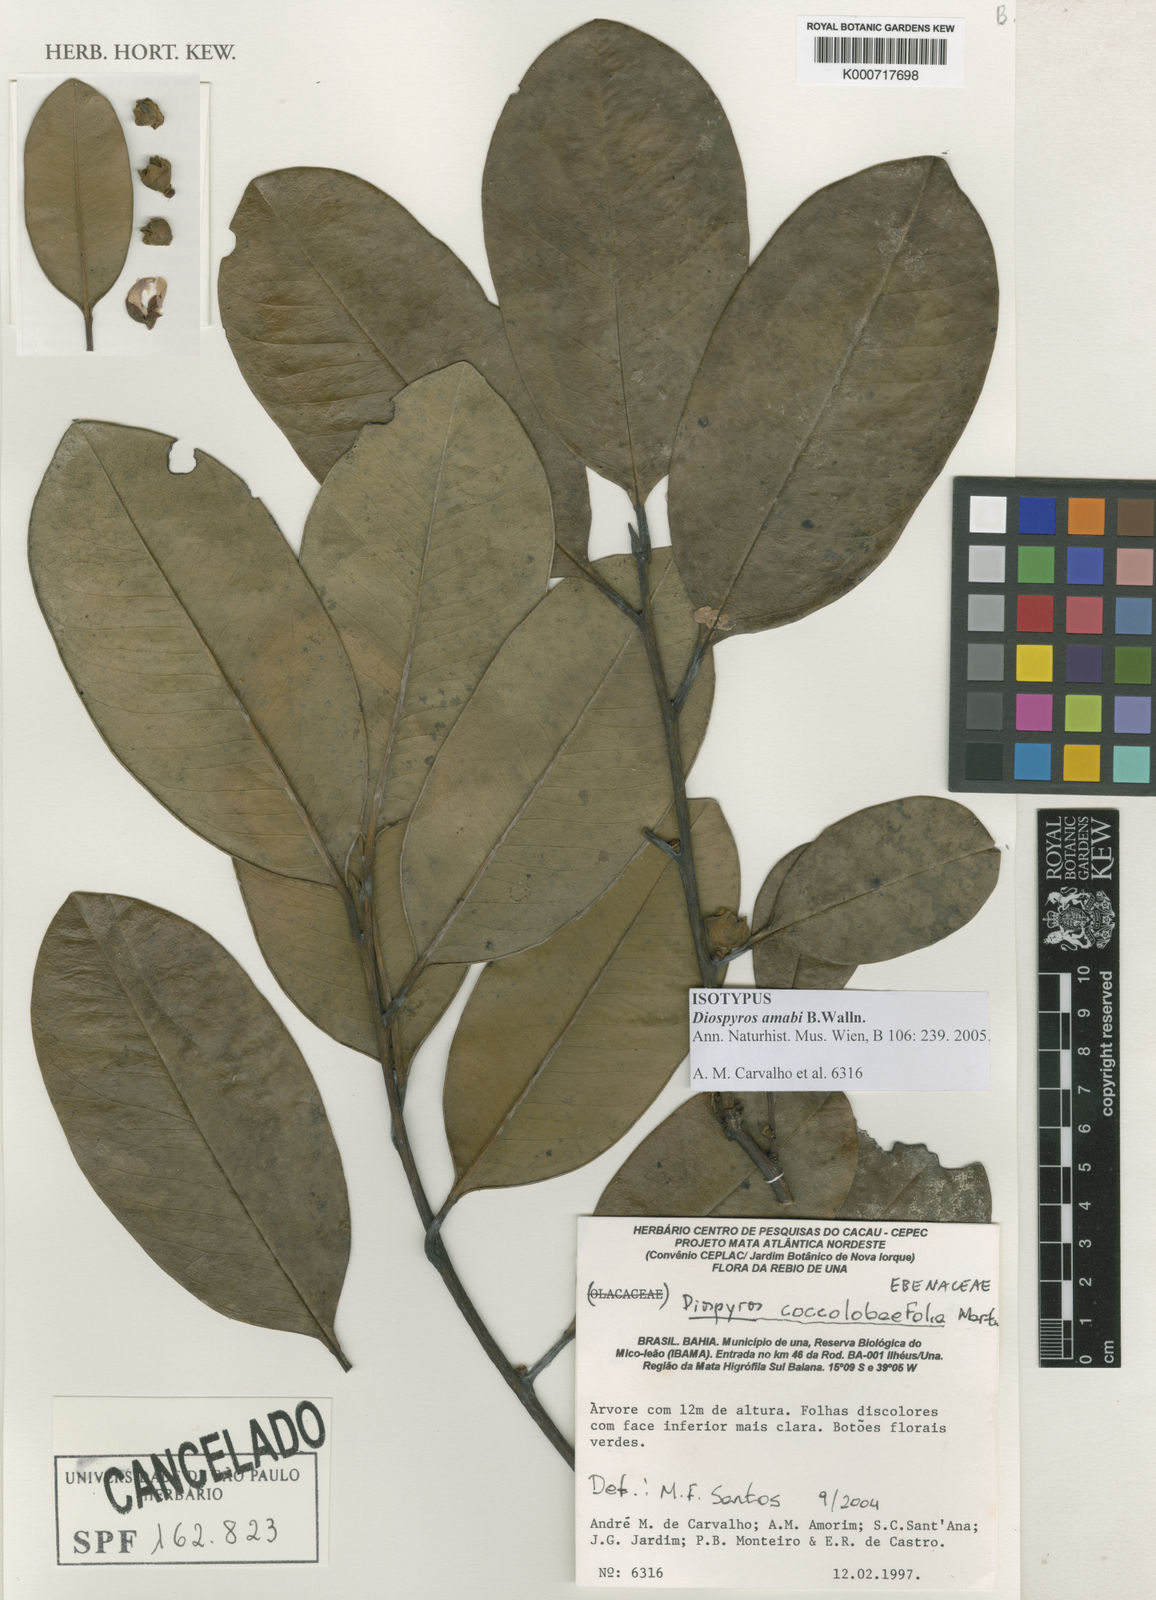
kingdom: Plantae
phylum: Tracheophyta
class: Magnoliopsida
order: Ericales
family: Ebenaceae
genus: Diospyros
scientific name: Diospyros amabi
